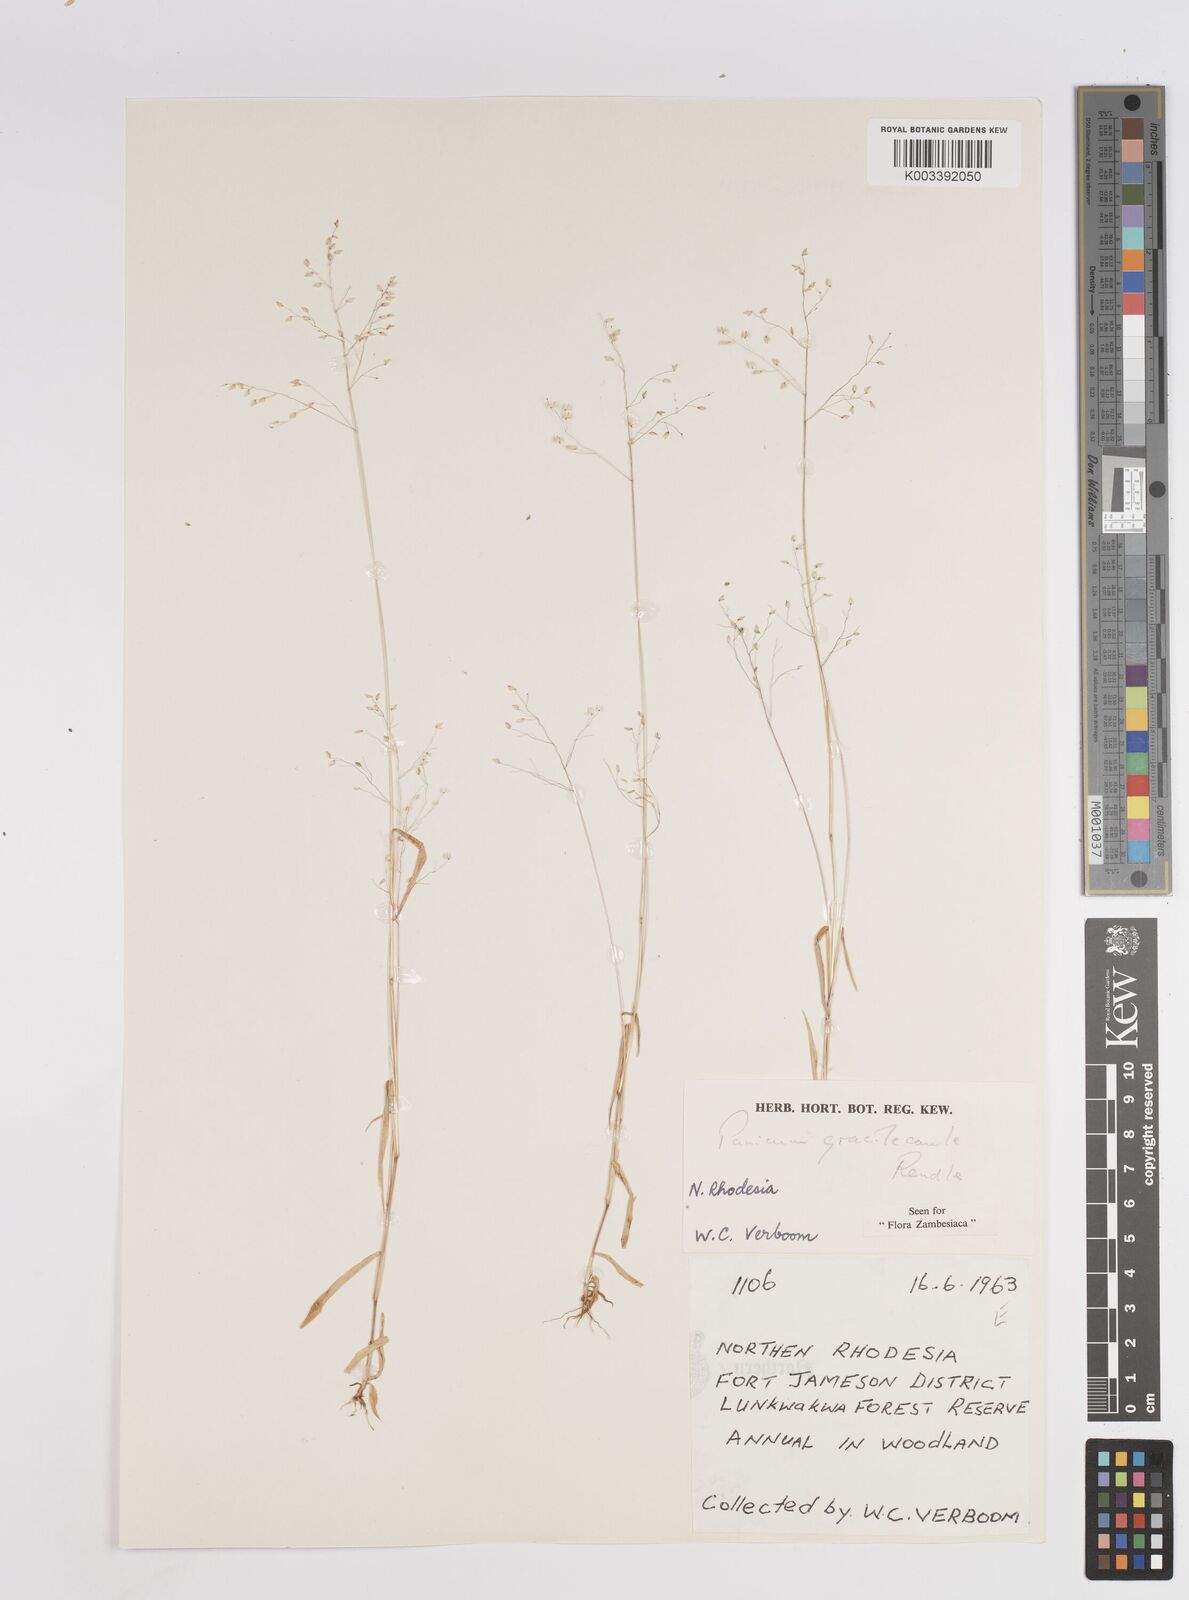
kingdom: Plantae
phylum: Tracheophyta
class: Liliopsida
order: Poales
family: Poaceae
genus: Trichanthecium
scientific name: Trichanthecium gracilicaule
